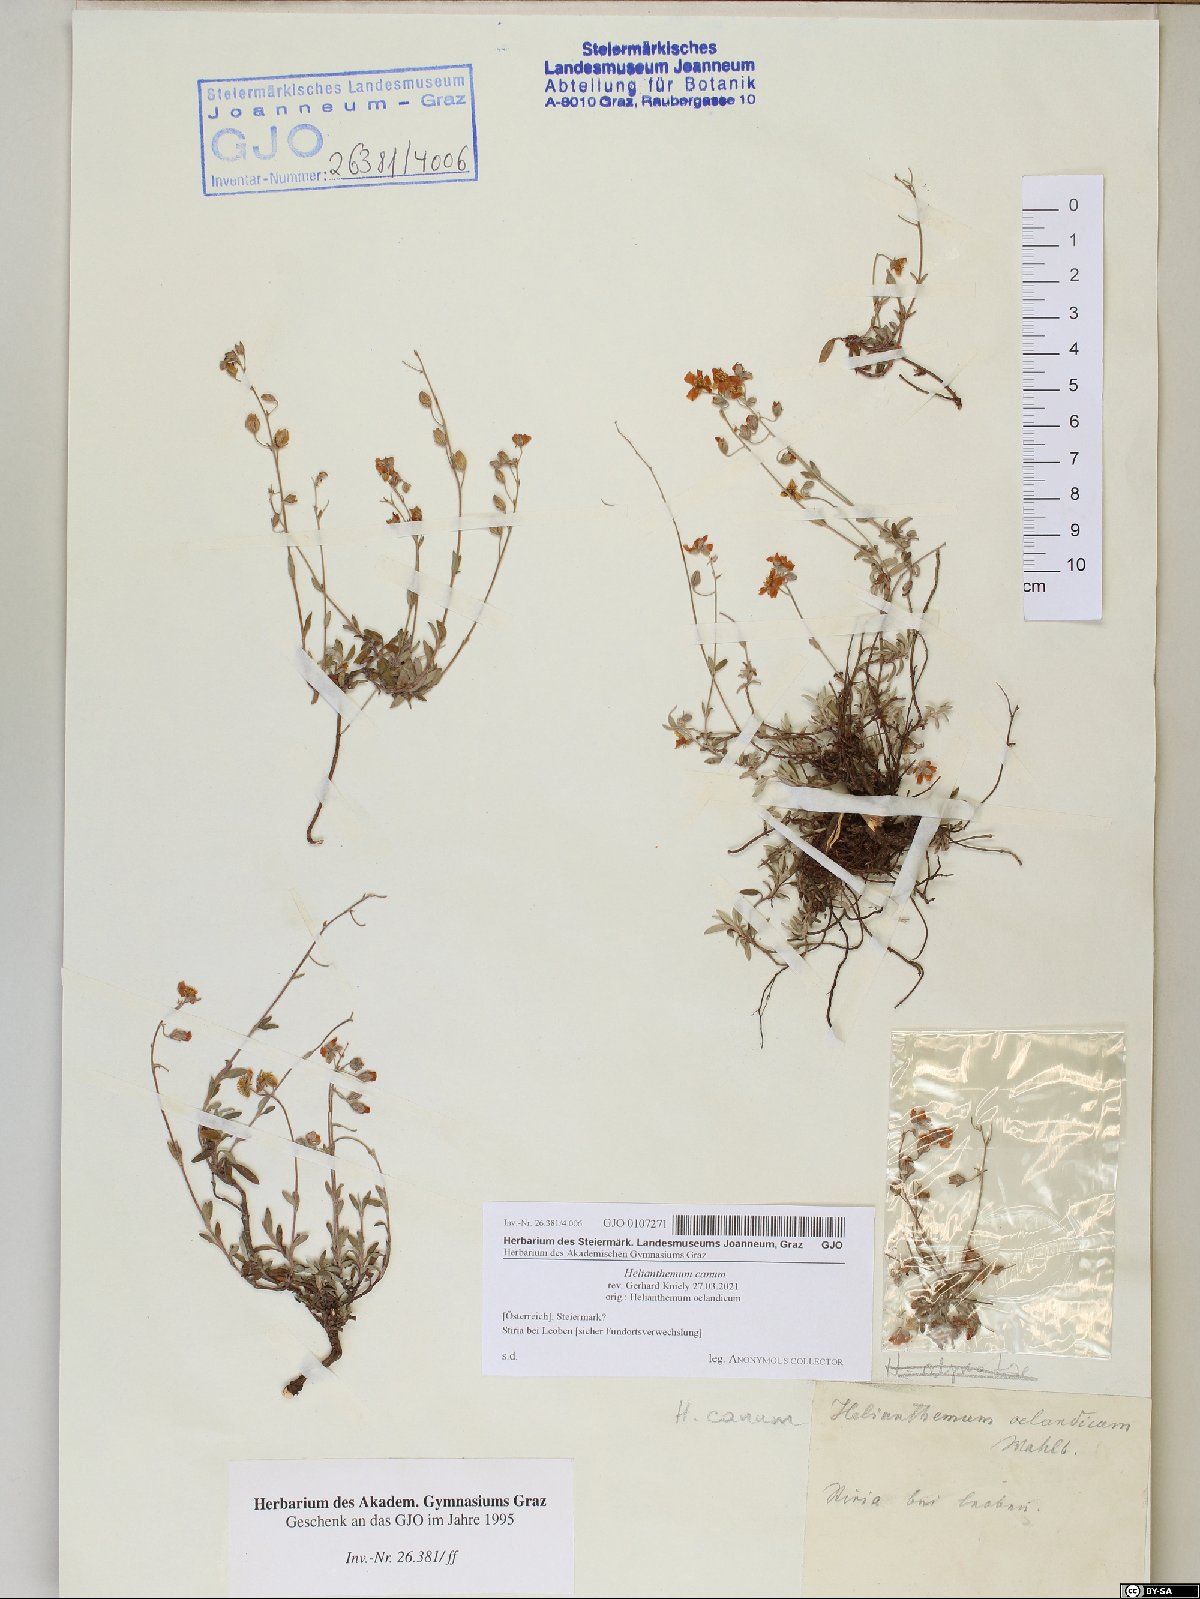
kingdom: Plantae
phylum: Tracheophyta
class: Magnoliopsida
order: Malvales
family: Cistaceae
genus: Helianthemum
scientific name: Helianthemum canum
